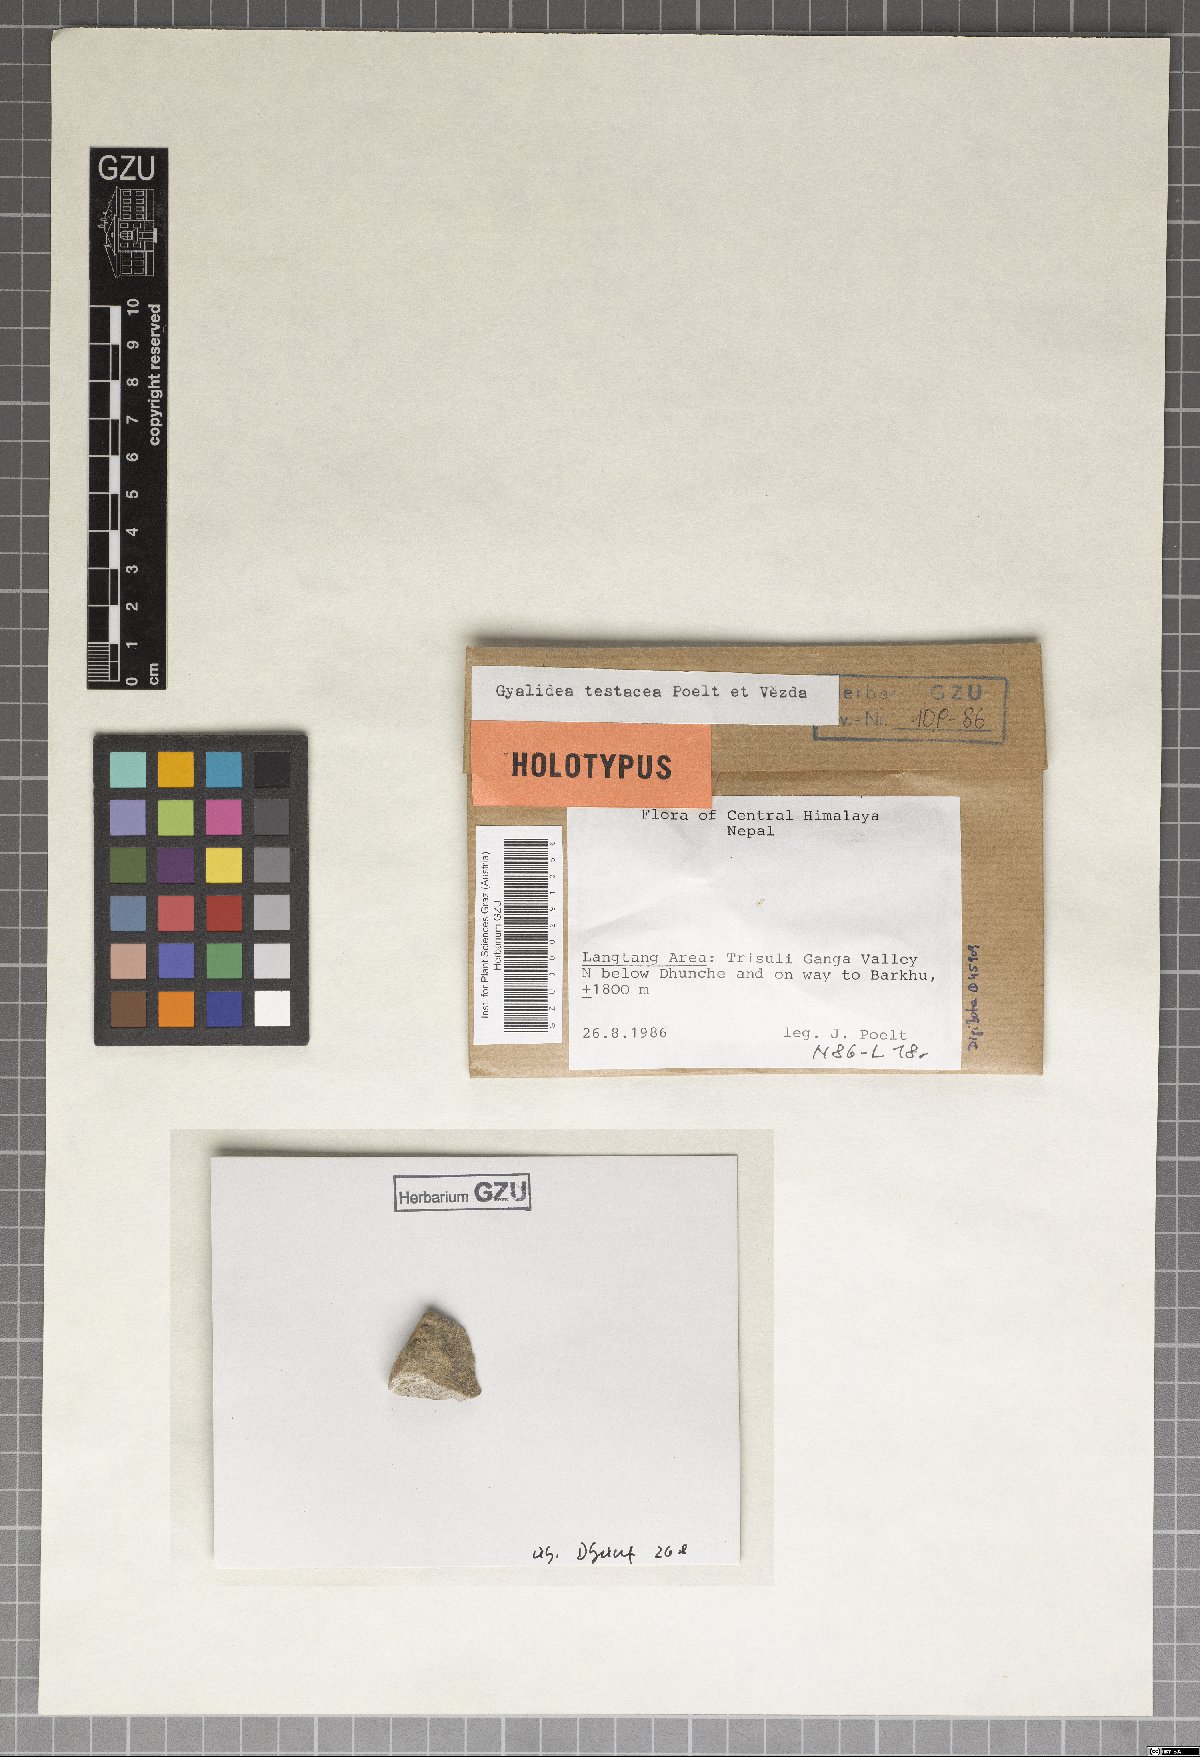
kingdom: Fungi
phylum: Ascomycota
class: Lecanoromycetes
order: Ostropales
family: Gomphillaceae
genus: Gyalidea
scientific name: Gyalidea testacea
